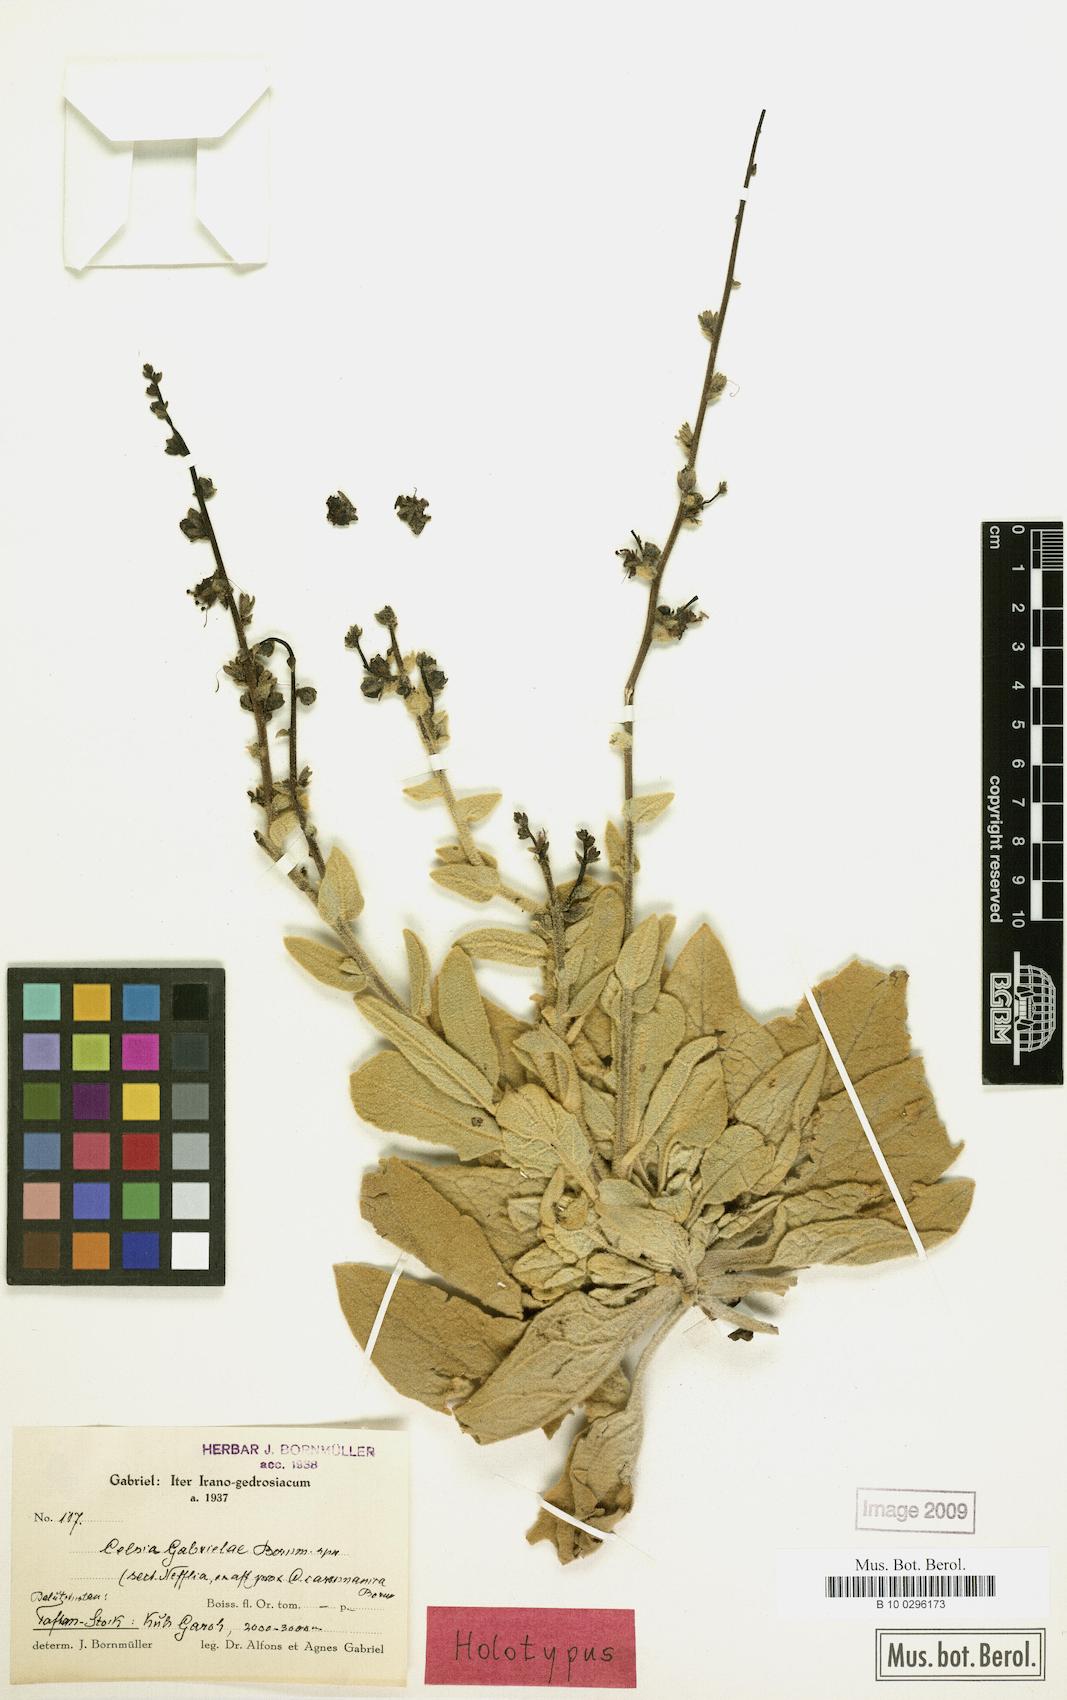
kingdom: Plantae
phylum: Tracheophyta
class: Magnoliopsida
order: Lamiales
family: Scrophulariaceae
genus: Verbascum
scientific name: Verbascum Celsia gabrielae
